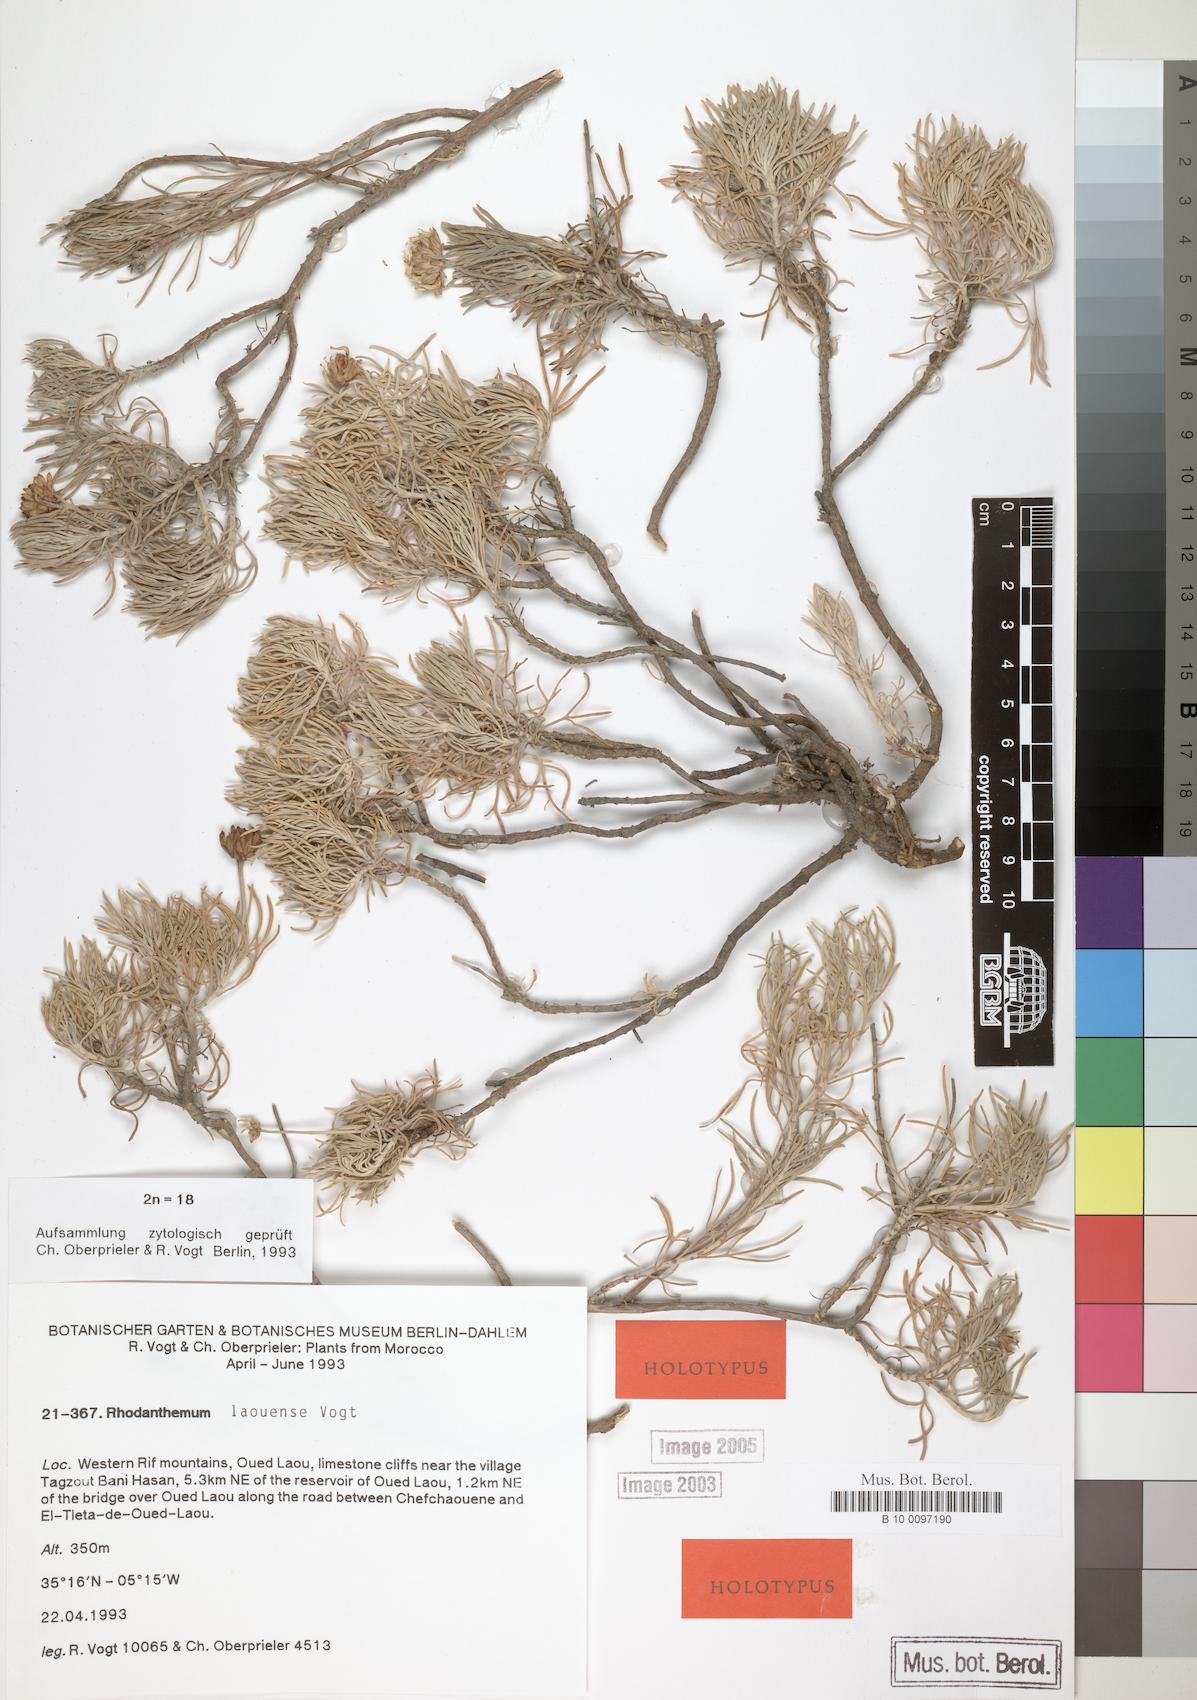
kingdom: Plantae
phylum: Tracheophyta
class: Magnoliopsida
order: Asterales
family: Asteraceae
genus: Rhodanthemum
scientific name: Rhodanthemum laouense
